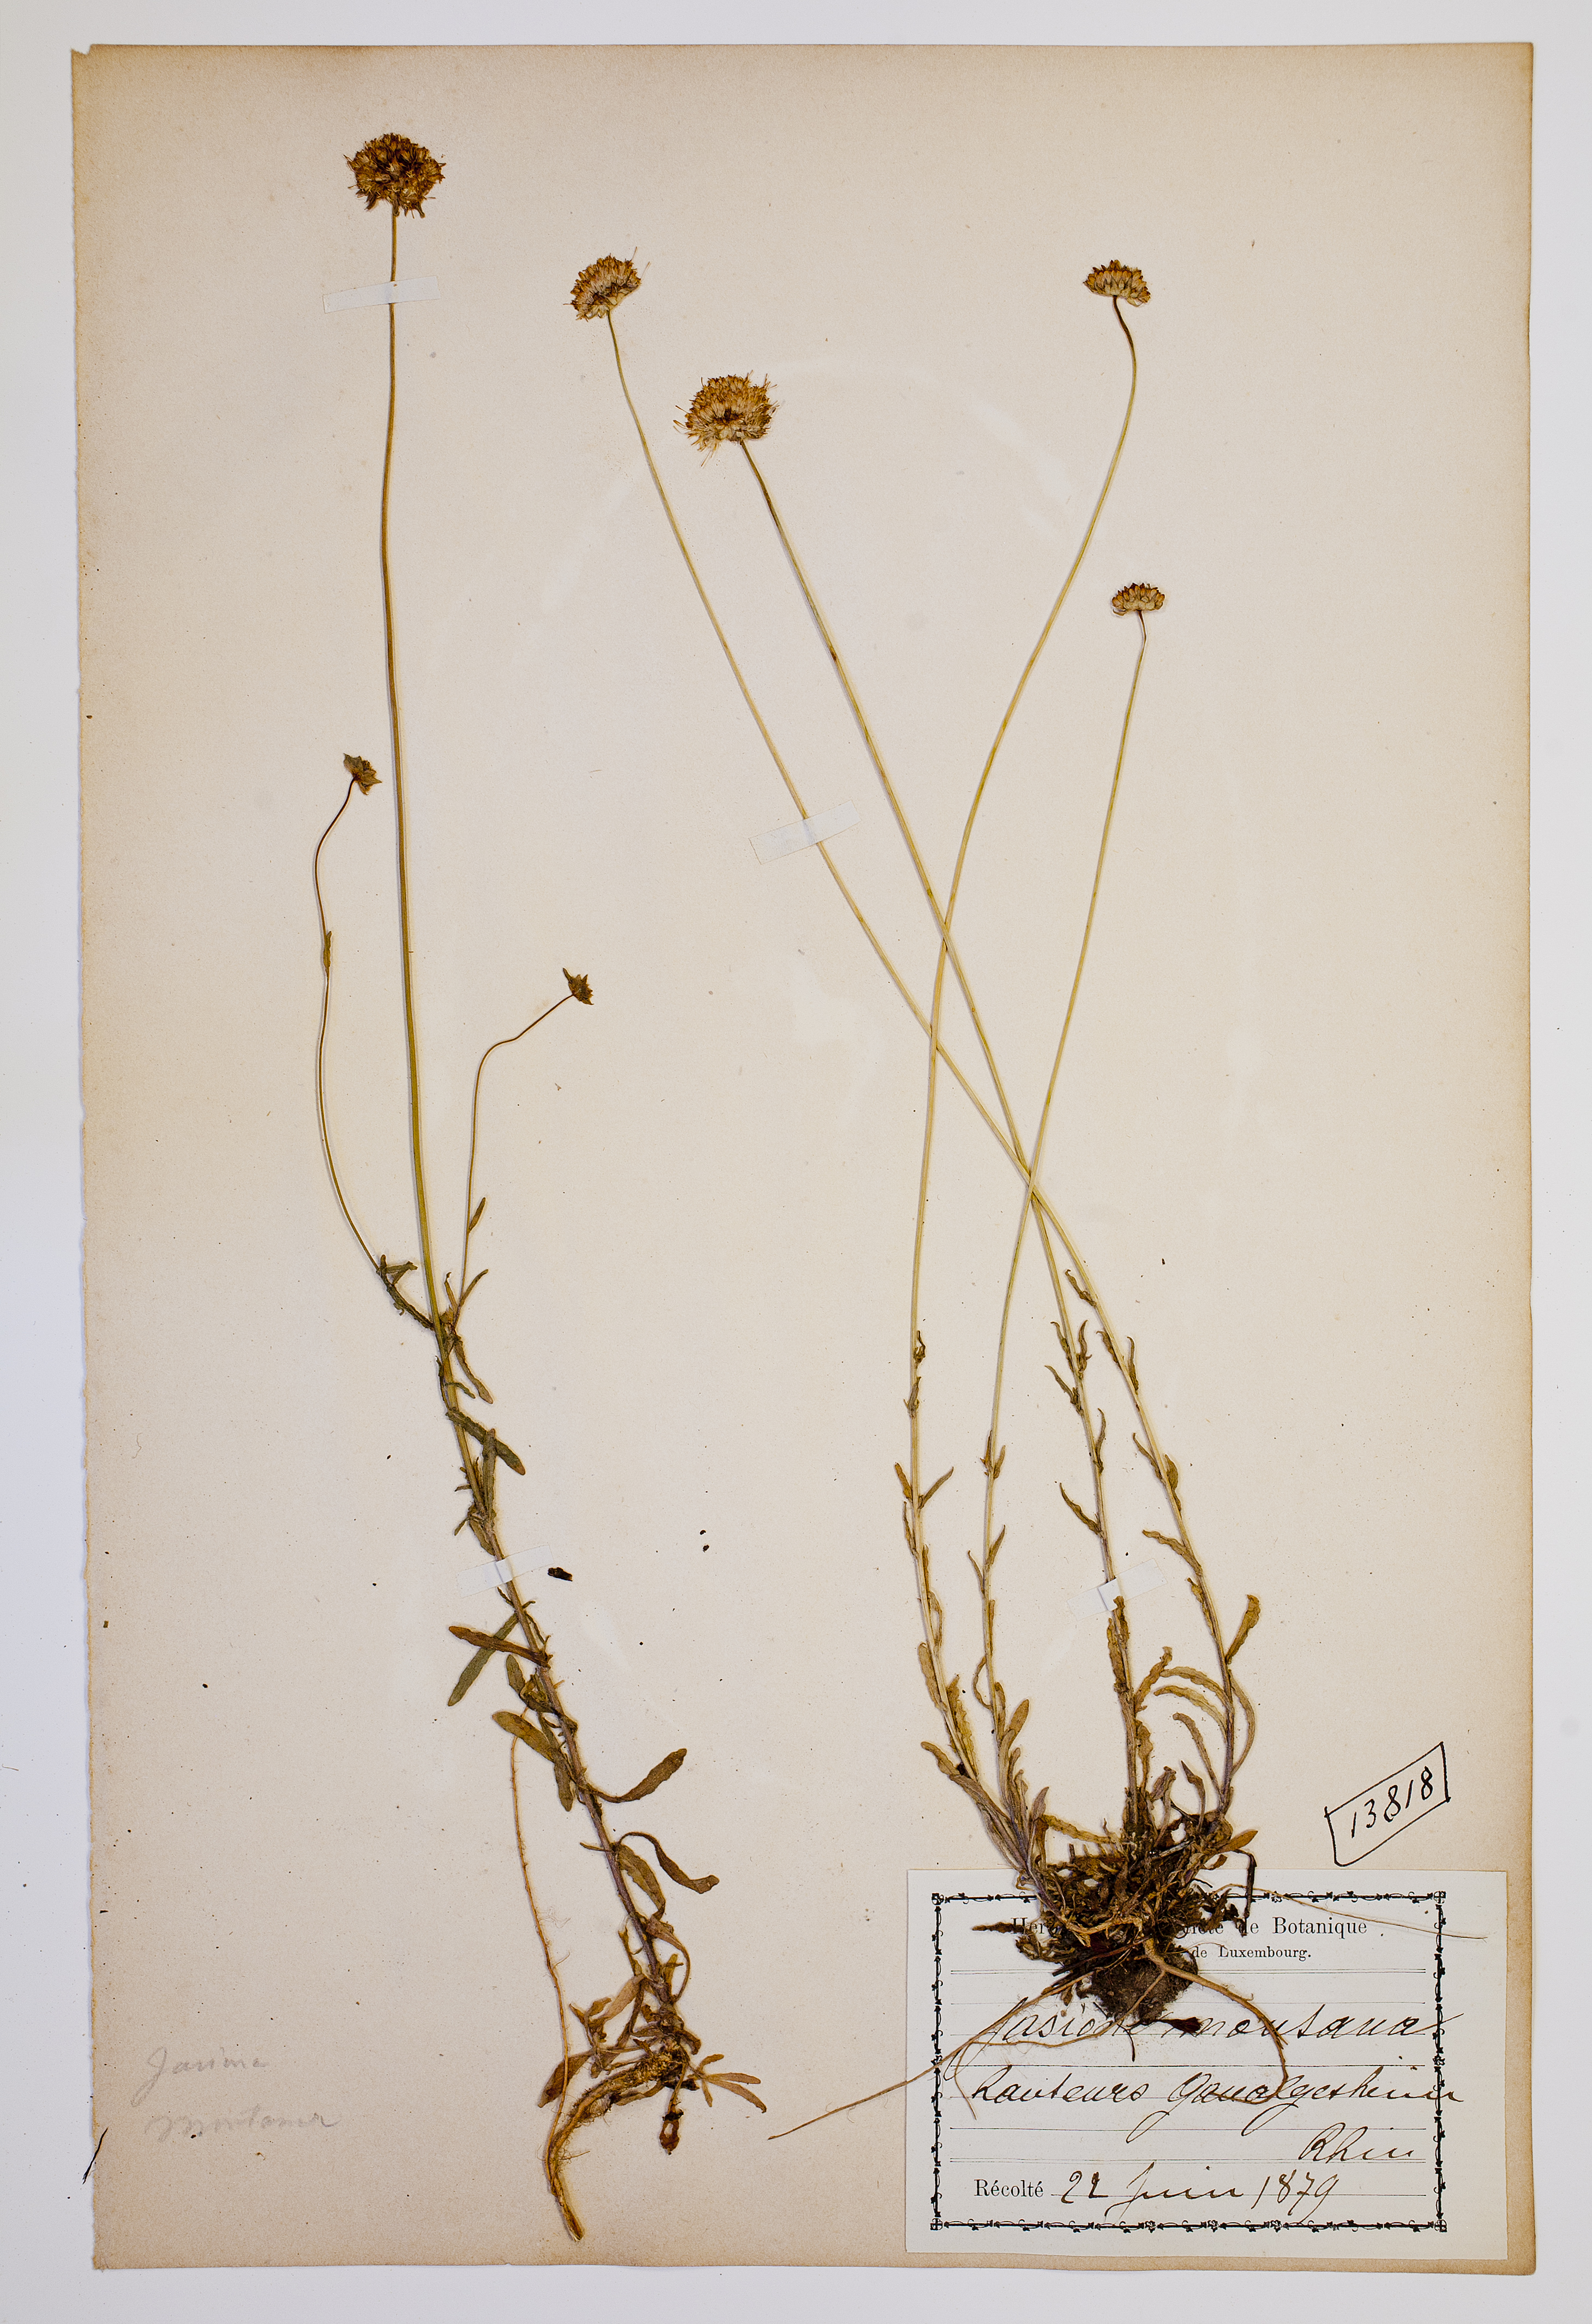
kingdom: Plantae
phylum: Tracheophyta
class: Magnoliopsida
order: Asterales
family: Campanulaceae
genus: Jasione
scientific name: Jasione montana
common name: Sheep's-bit
